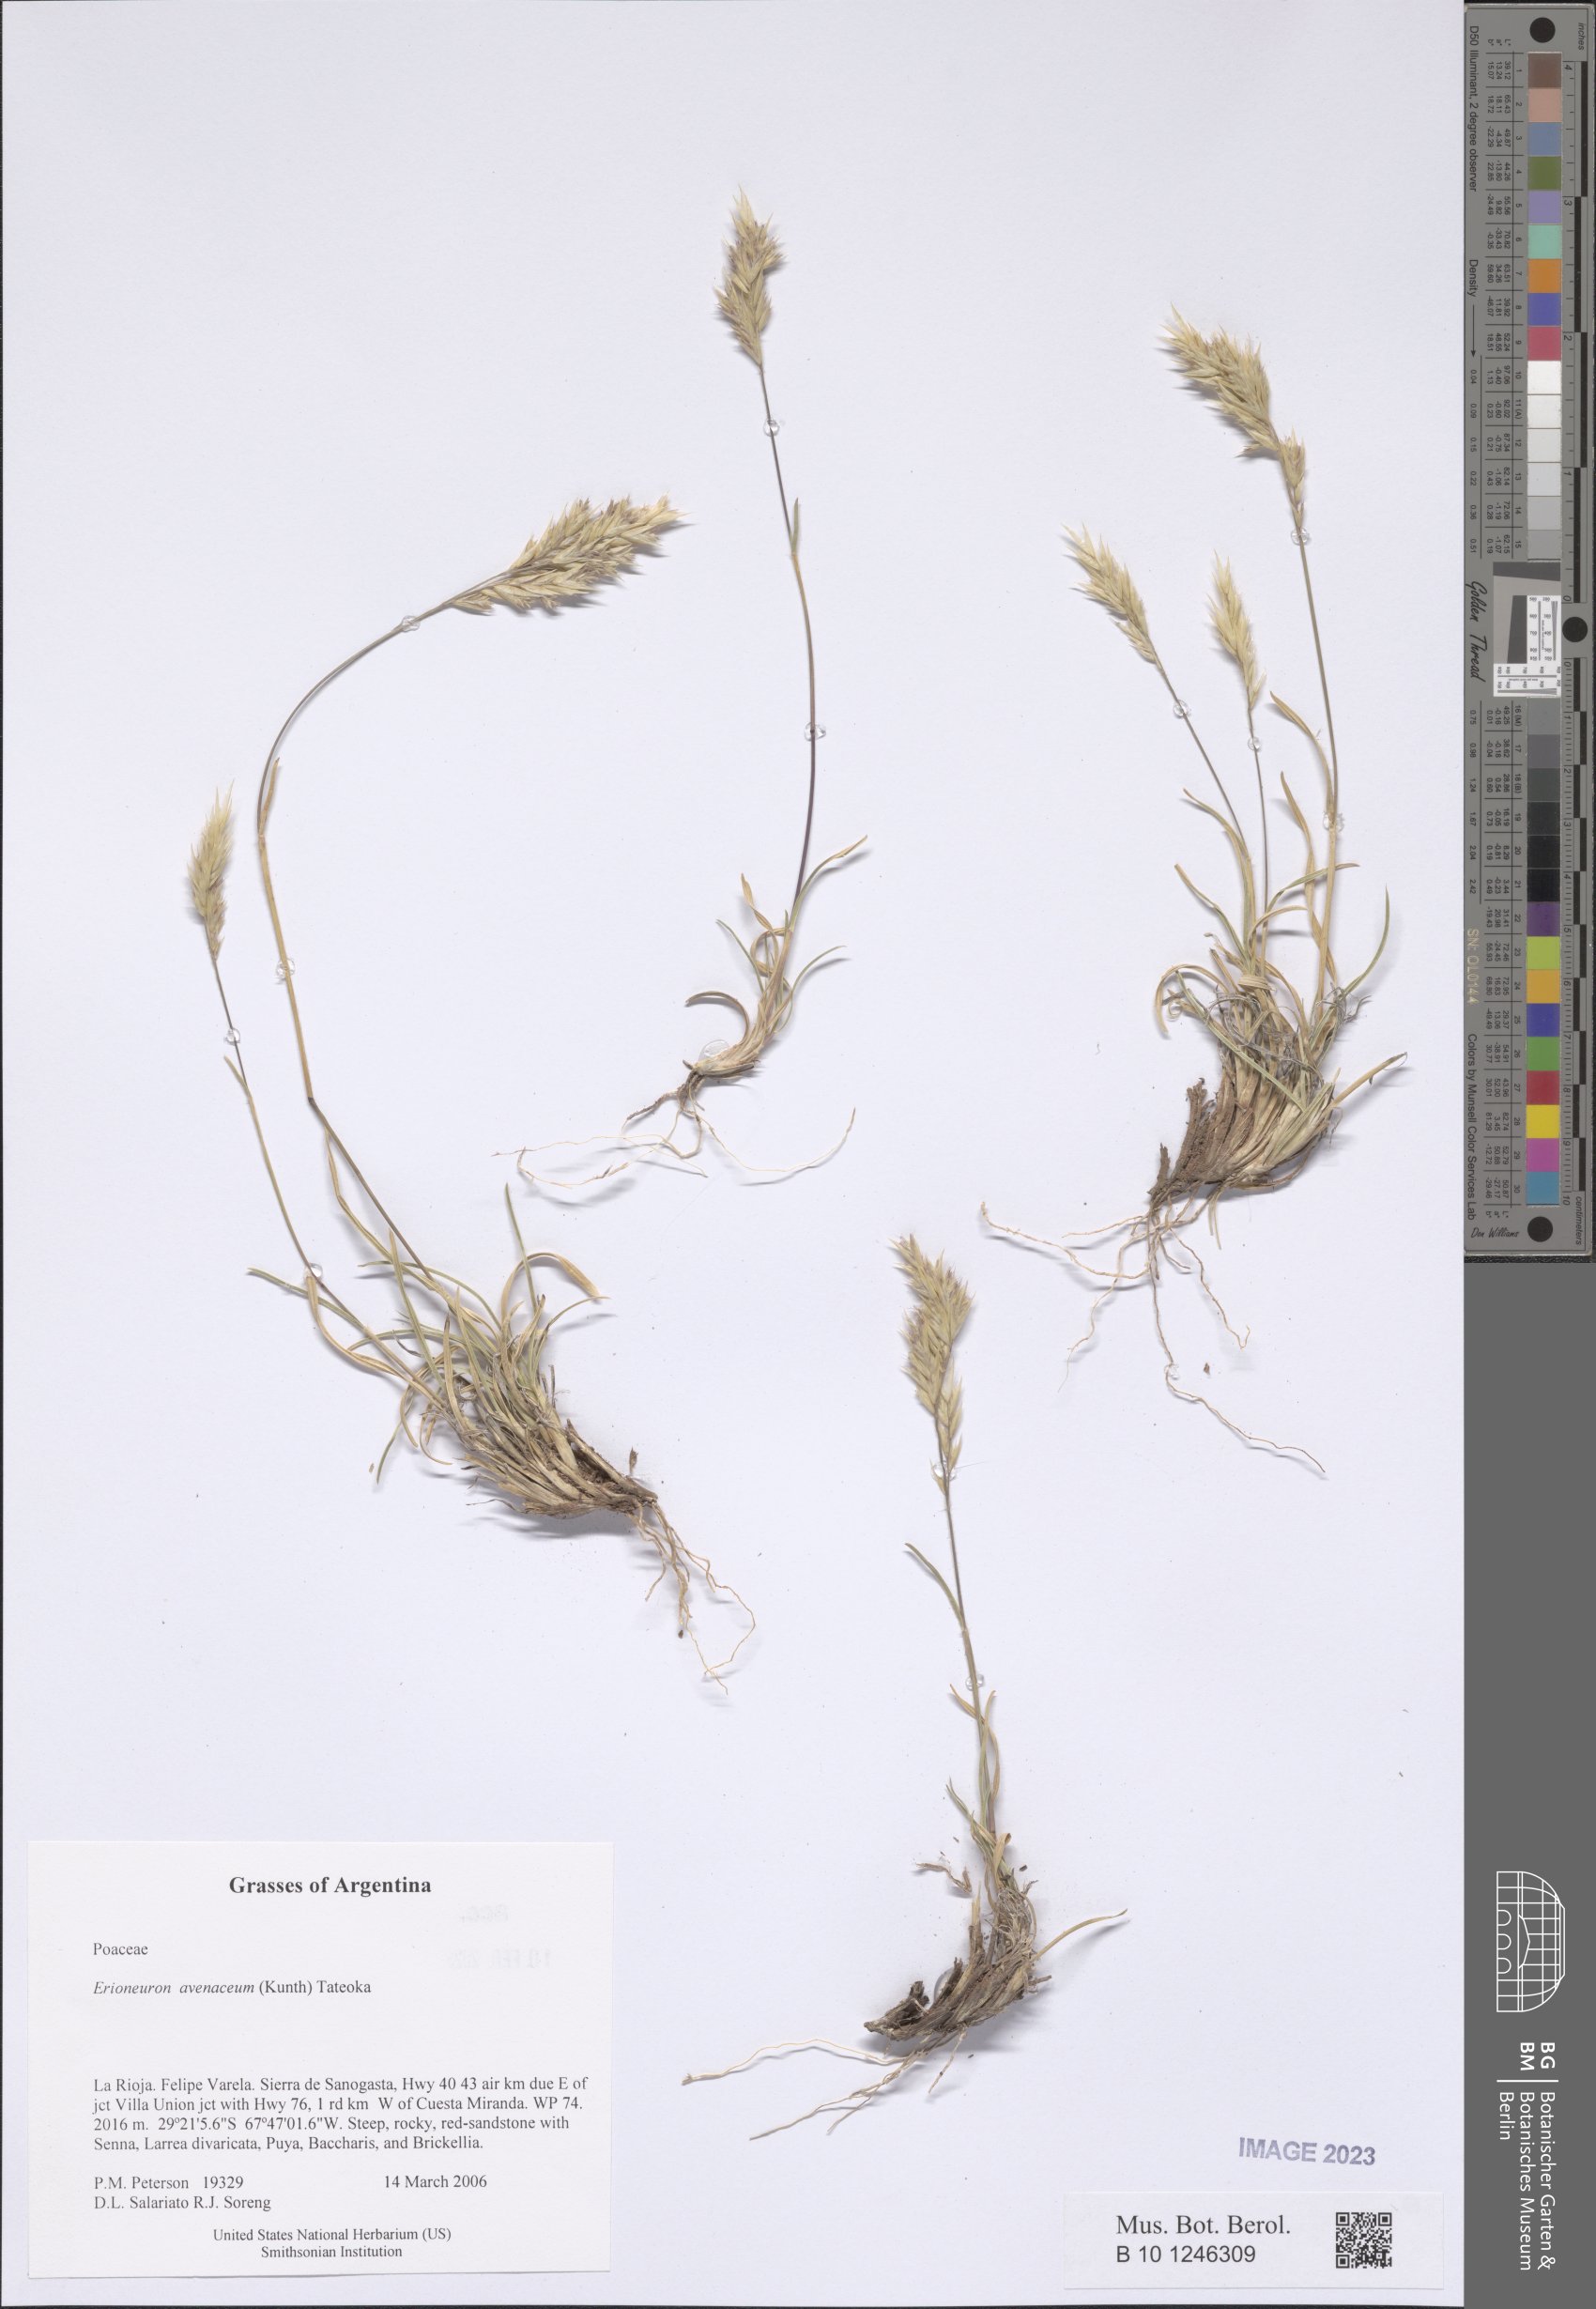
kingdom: Plantae
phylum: Tracheophyta
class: Liliopsida
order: Poales
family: Poaceae
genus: Erioneuron
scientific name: Erioneuron avenaceum
